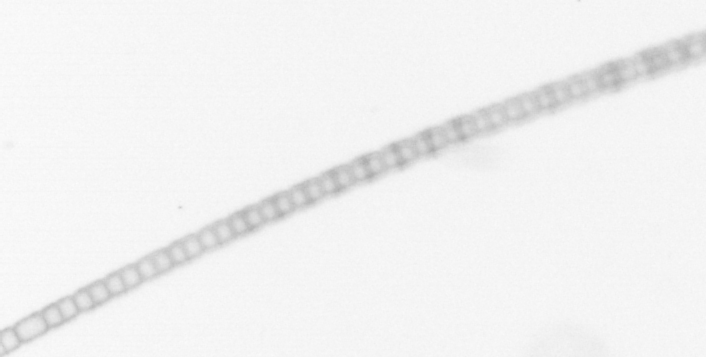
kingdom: Chromista
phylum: Ochrophyta
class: Bacillariophyceae
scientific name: Bacillariophyceae
